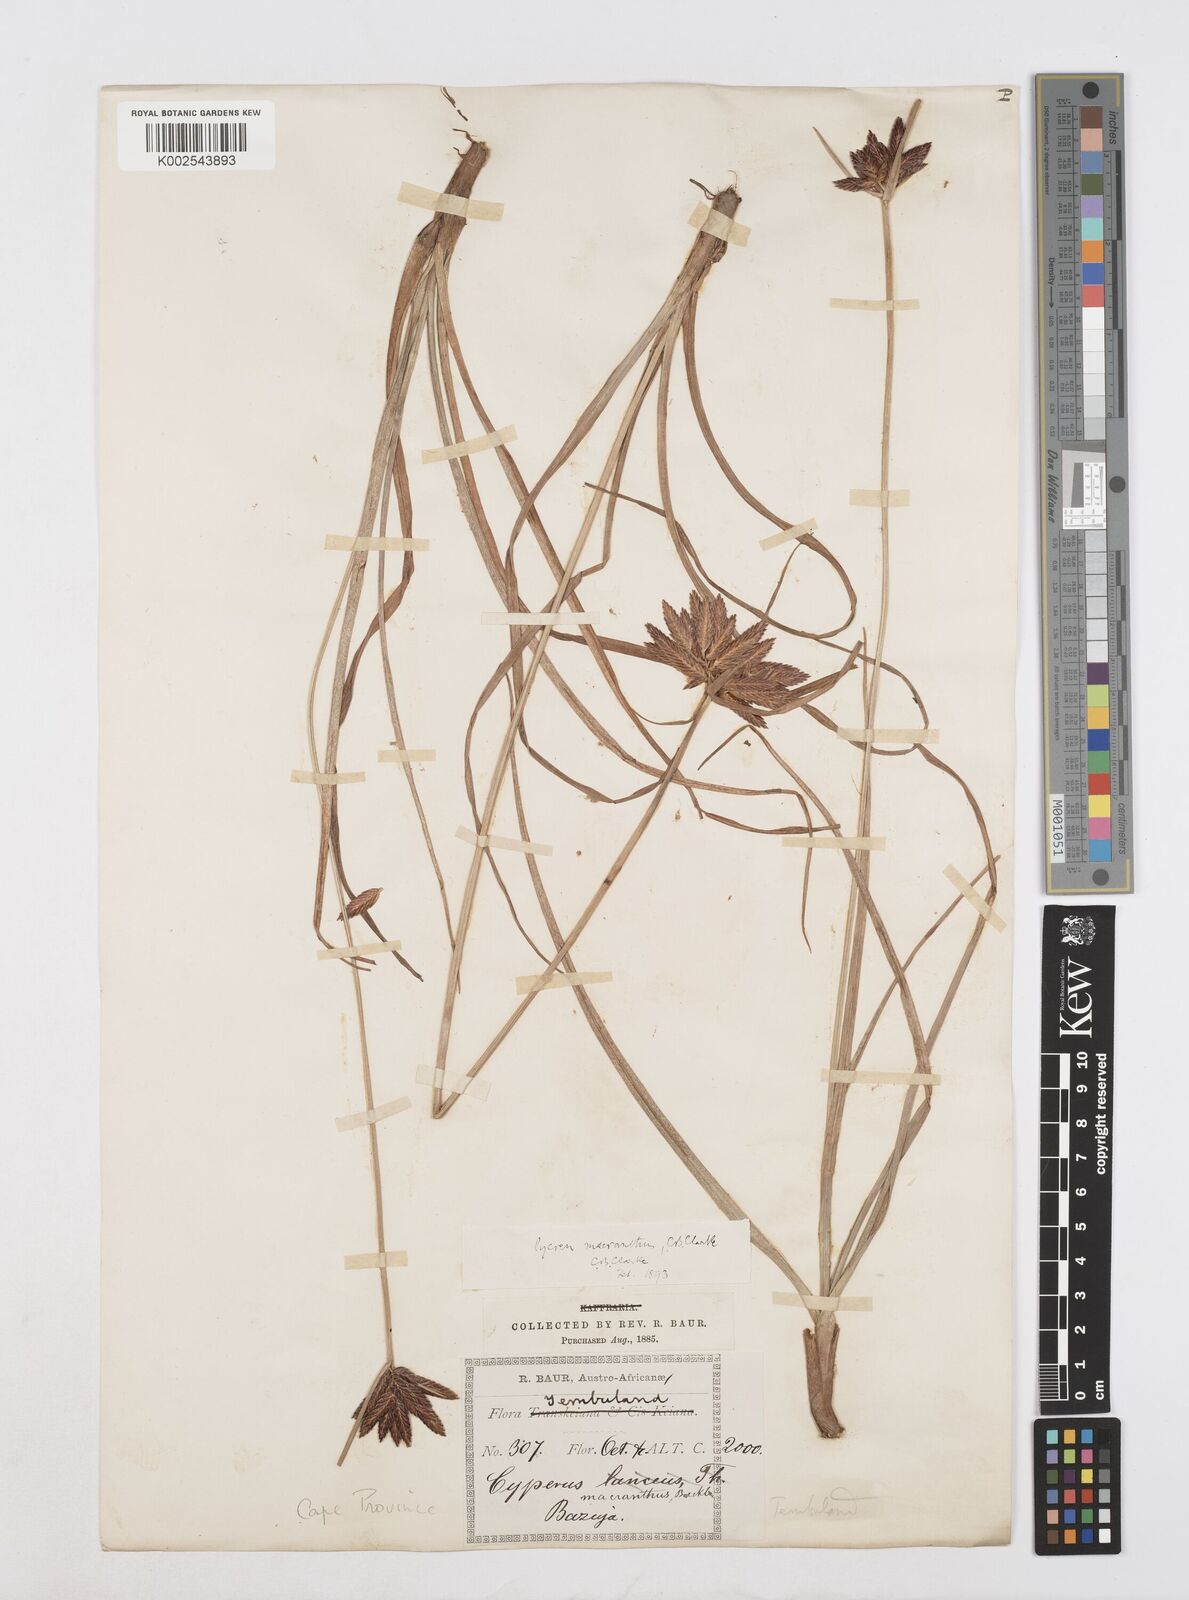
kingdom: Plantae
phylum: Tracheophyta
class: Liliopsida
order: Poales
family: Cyperaceae
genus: Cyperus
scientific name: Cyperus nigricans
